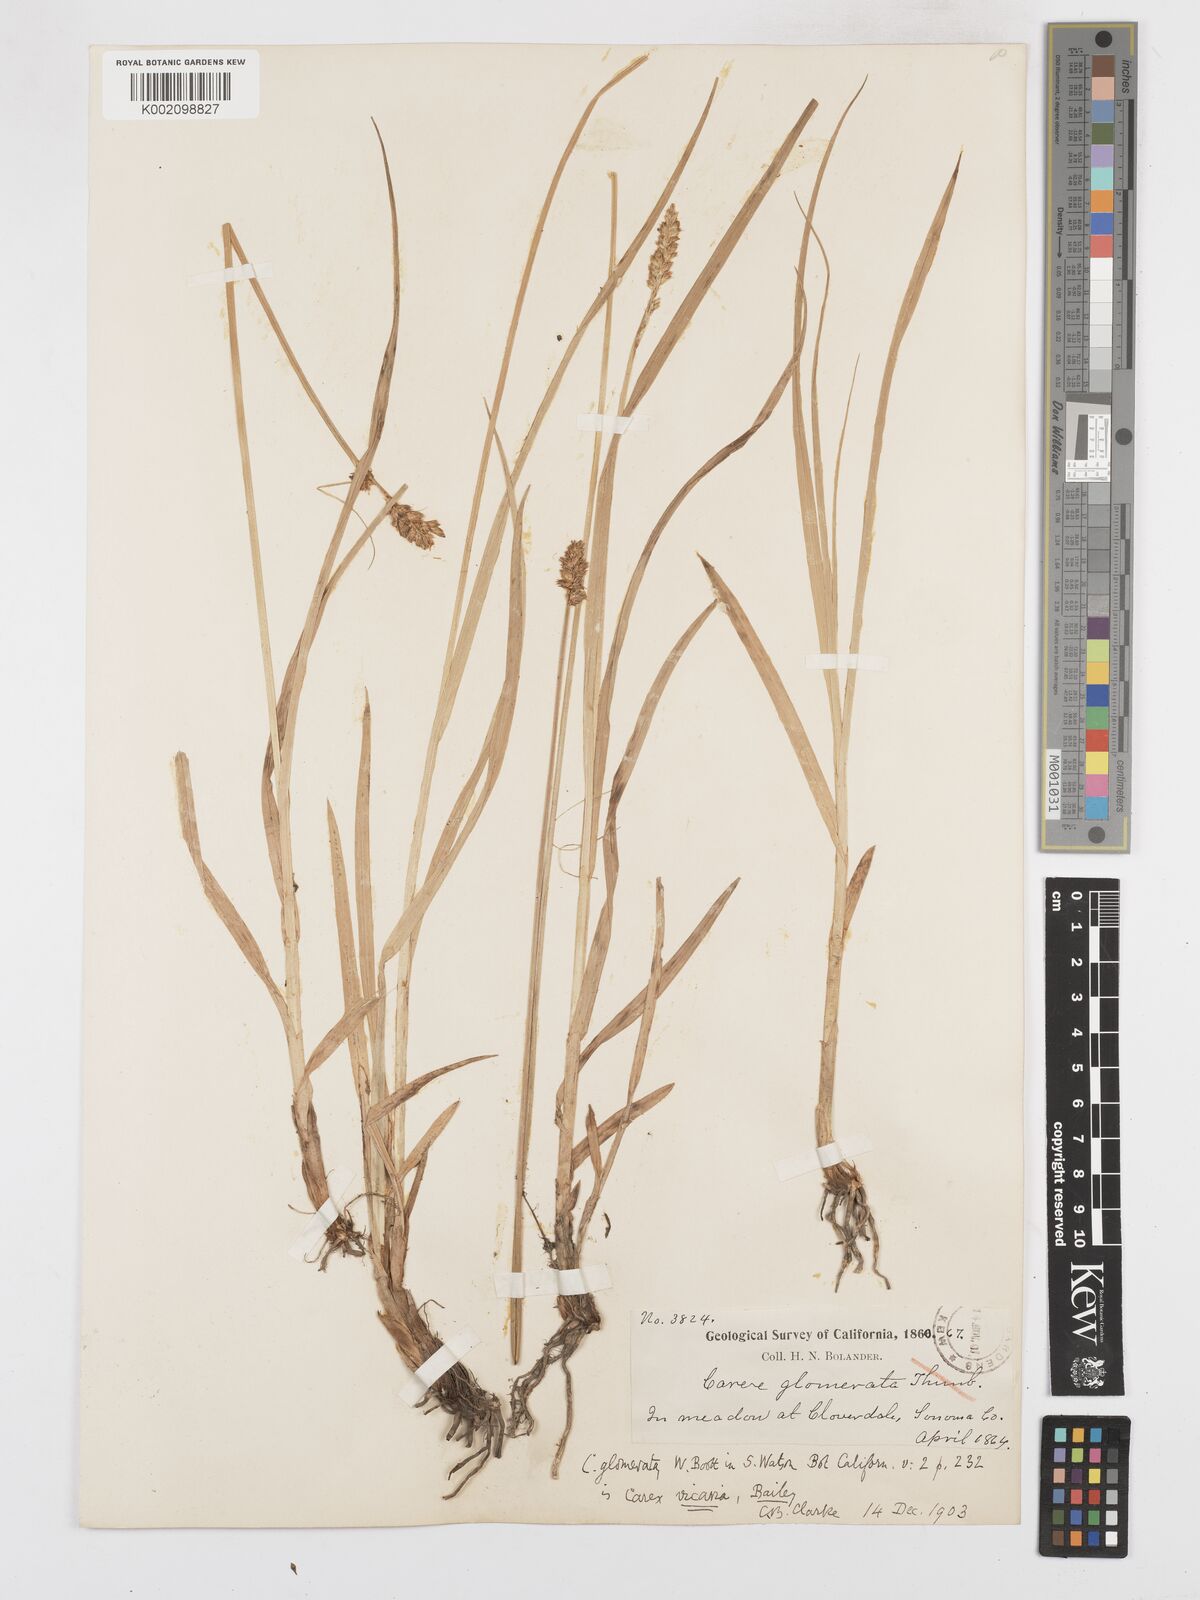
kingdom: Plantae
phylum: Tracheophyta
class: Liliopsida
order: Poales
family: Cyperaceae
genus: Carex
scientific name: Carex densa
